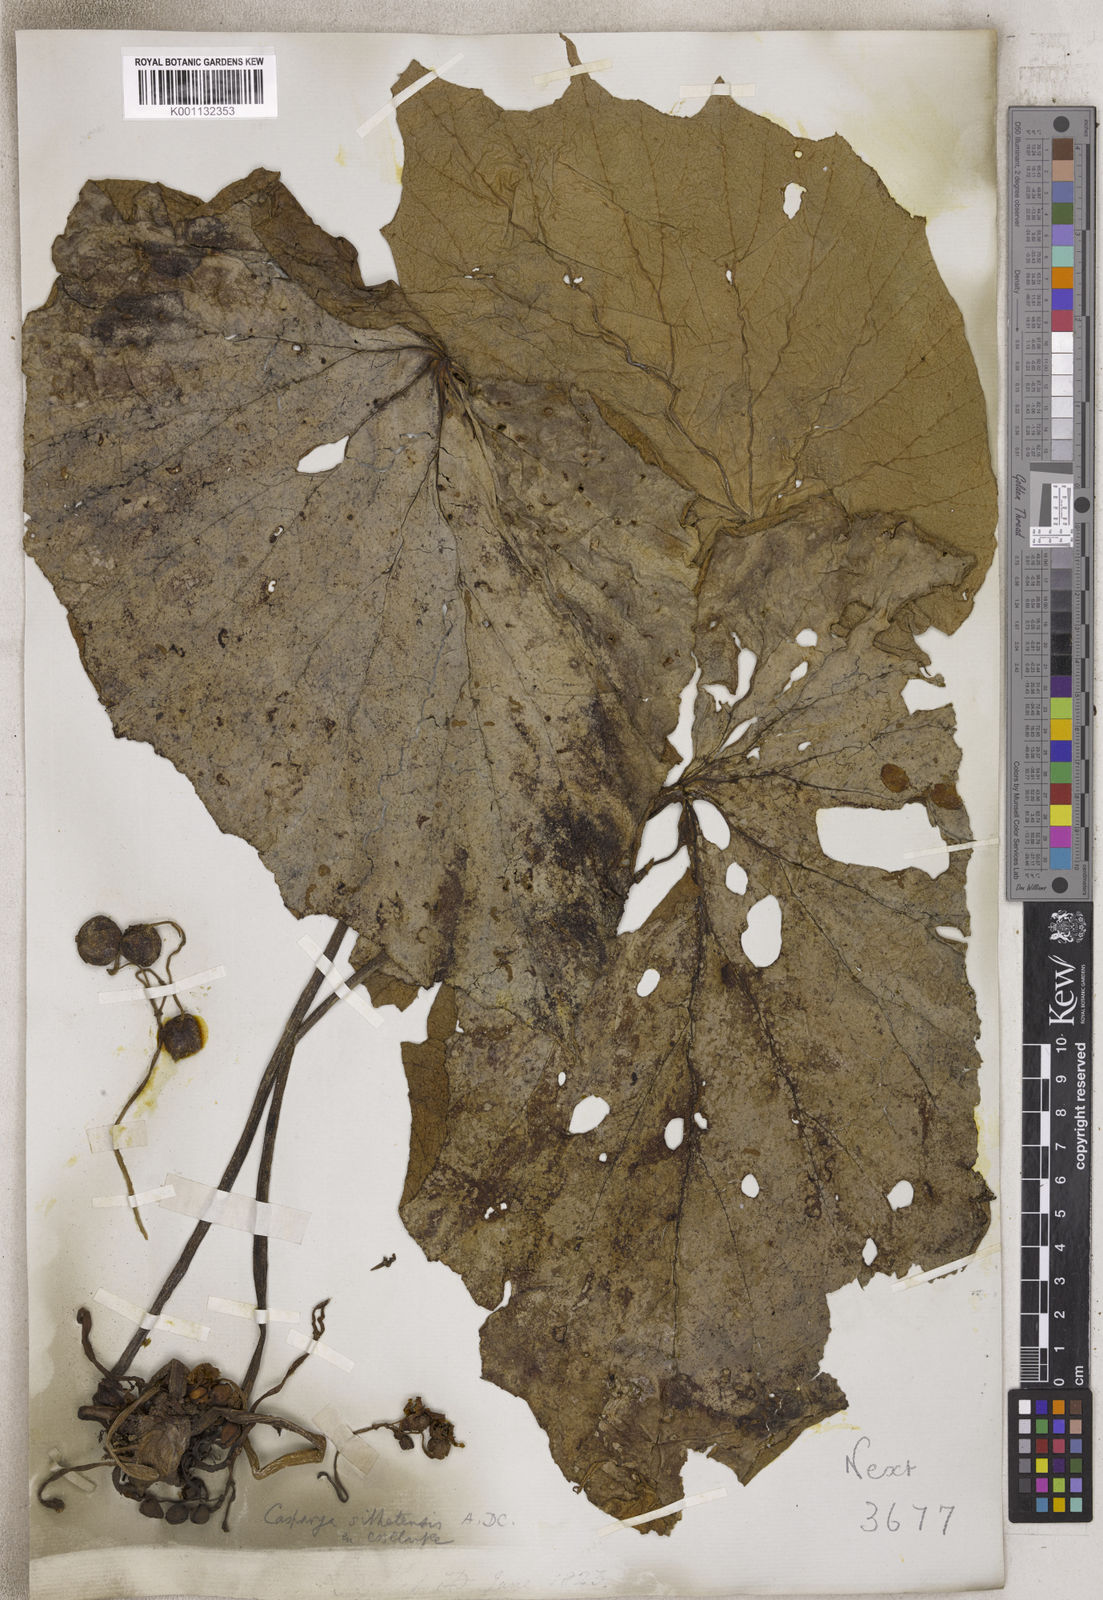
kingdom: Plantae
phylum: Tracheophyta
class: Magnoliopsida
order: Cucurbitales
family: Begoniaceae
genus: Begonia
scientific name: Begonia
